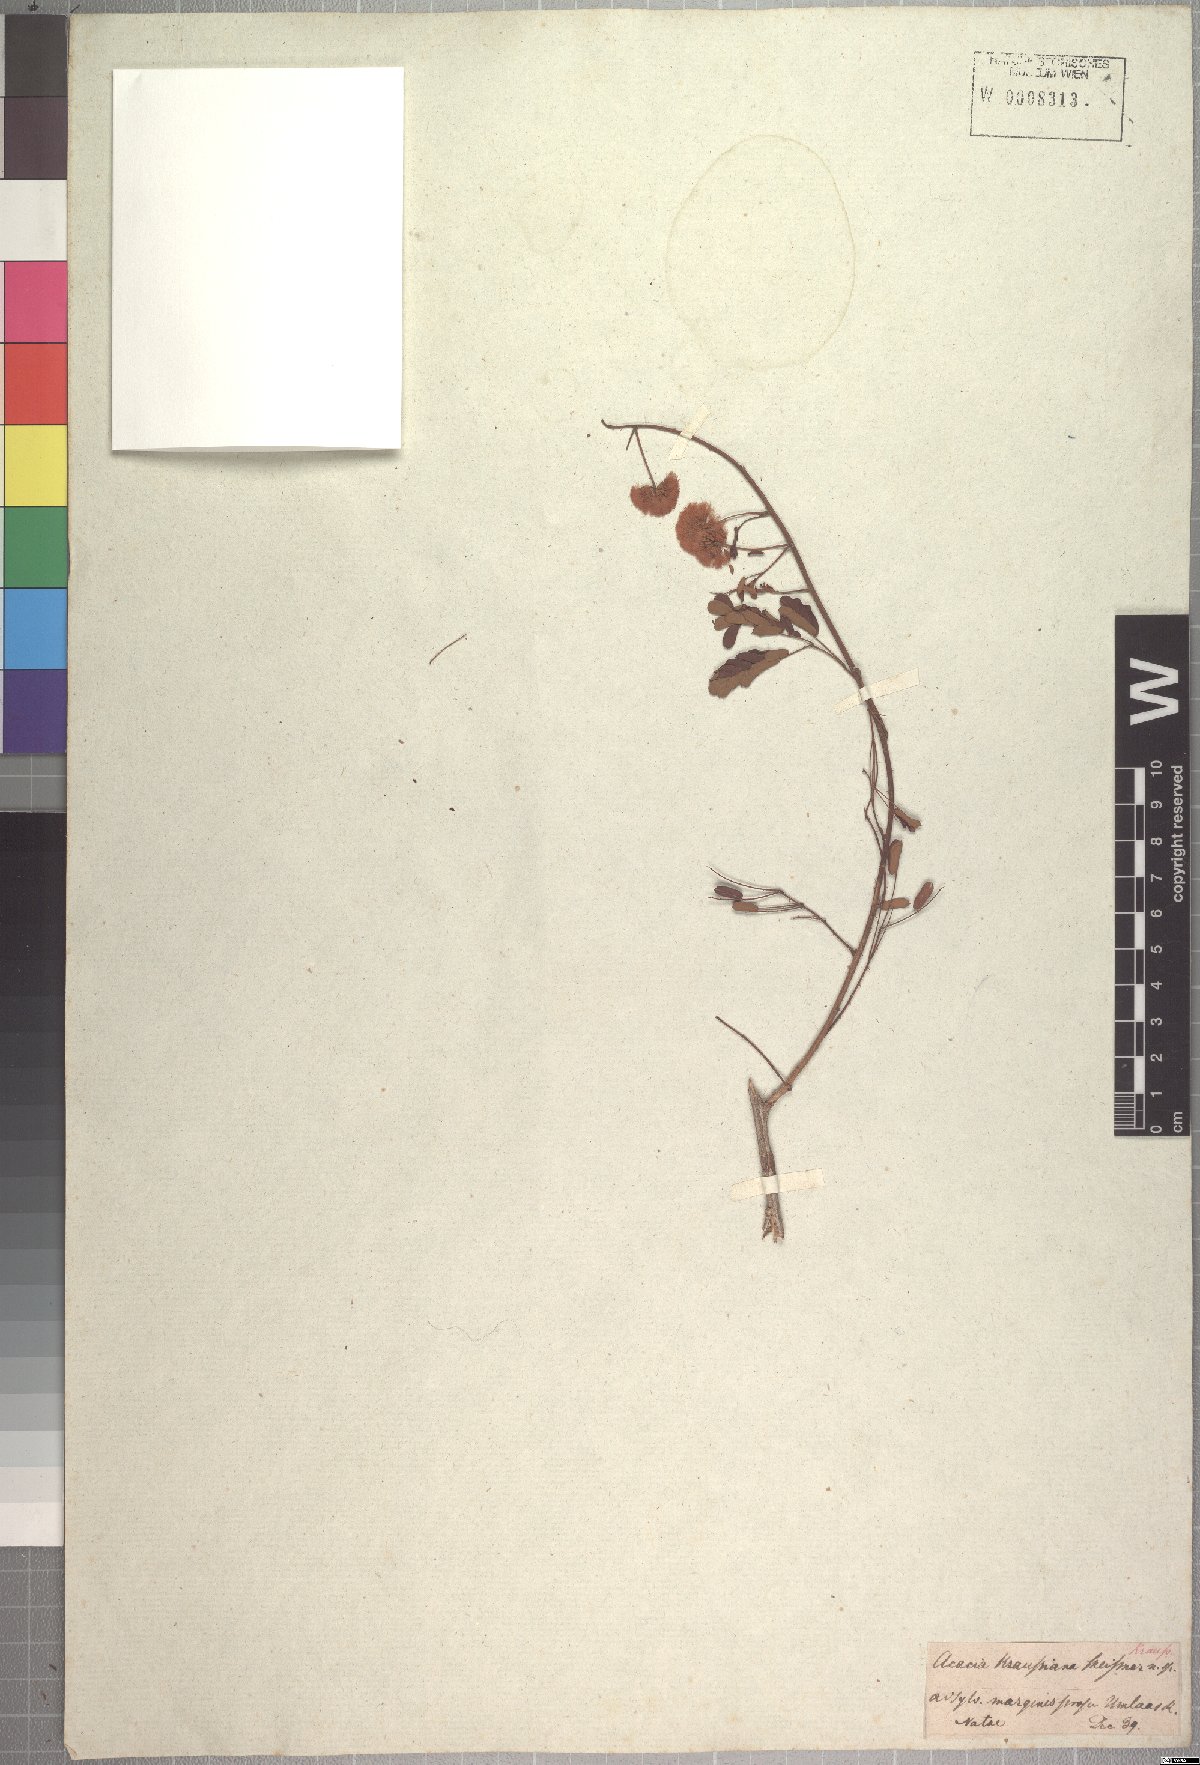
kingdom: Plantae
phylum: Tracheophyta
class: Magnoliopsida
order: Fabales
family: Fabaceae
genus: Senegalia
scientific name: Senegalia kraussiana
